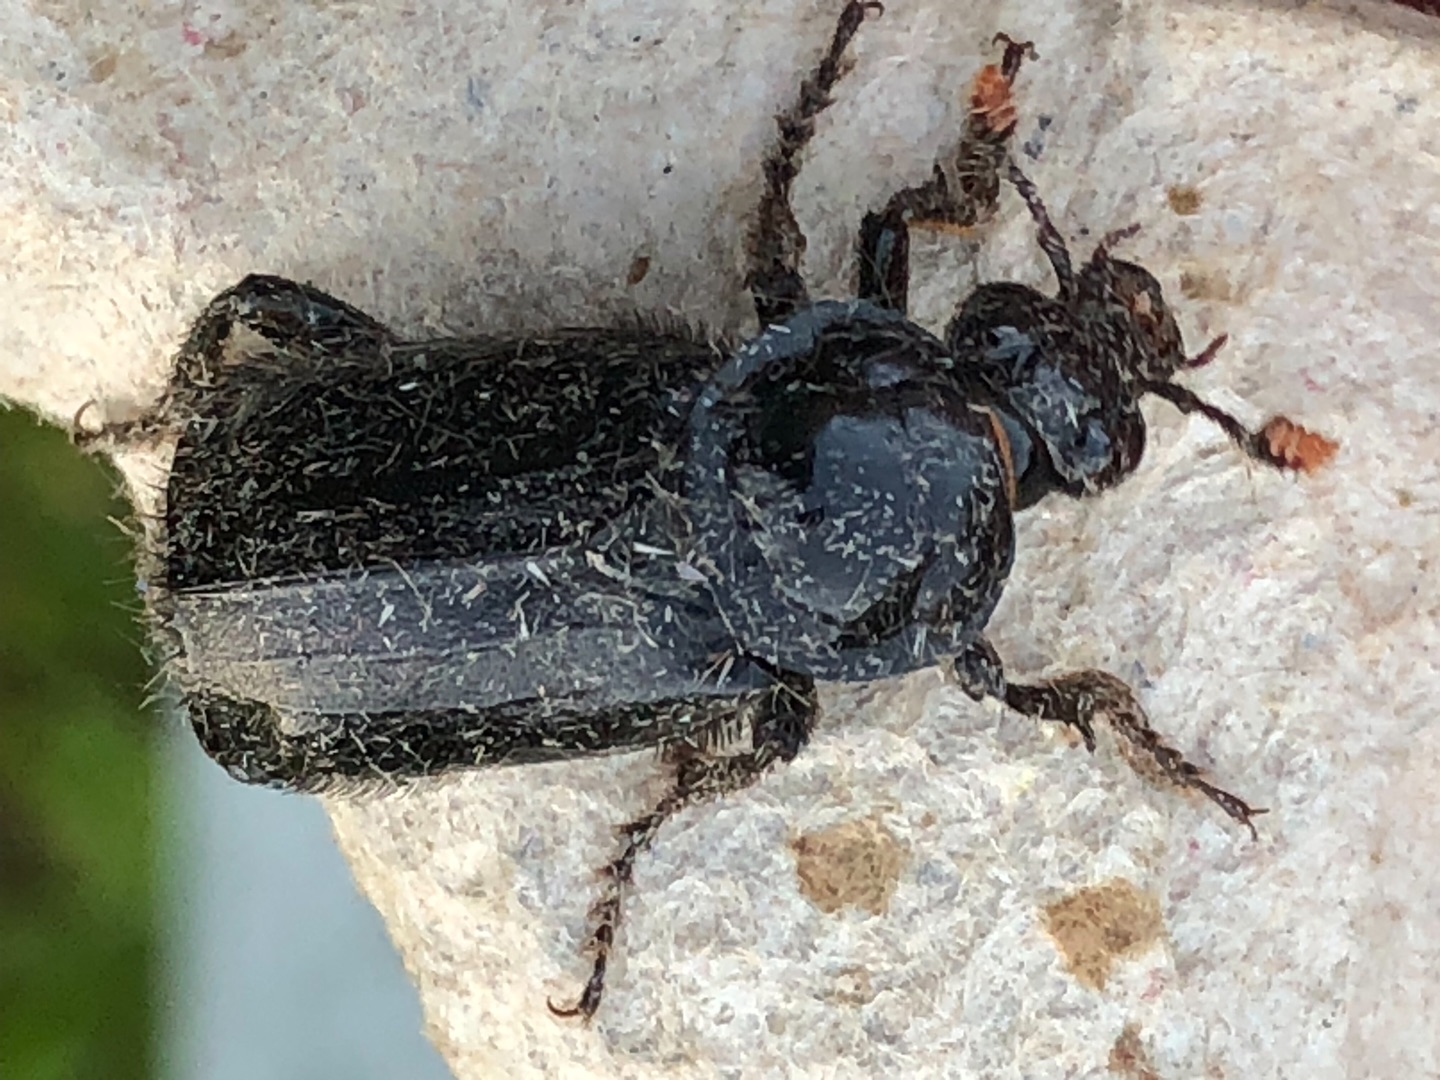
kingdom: Animalia
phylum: Arthropoda
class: Insecta
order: Coleoptera
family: Staphylinidae
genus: Nicrophorus
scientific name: Nicrophorus humator
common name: Sort ådselgraver
